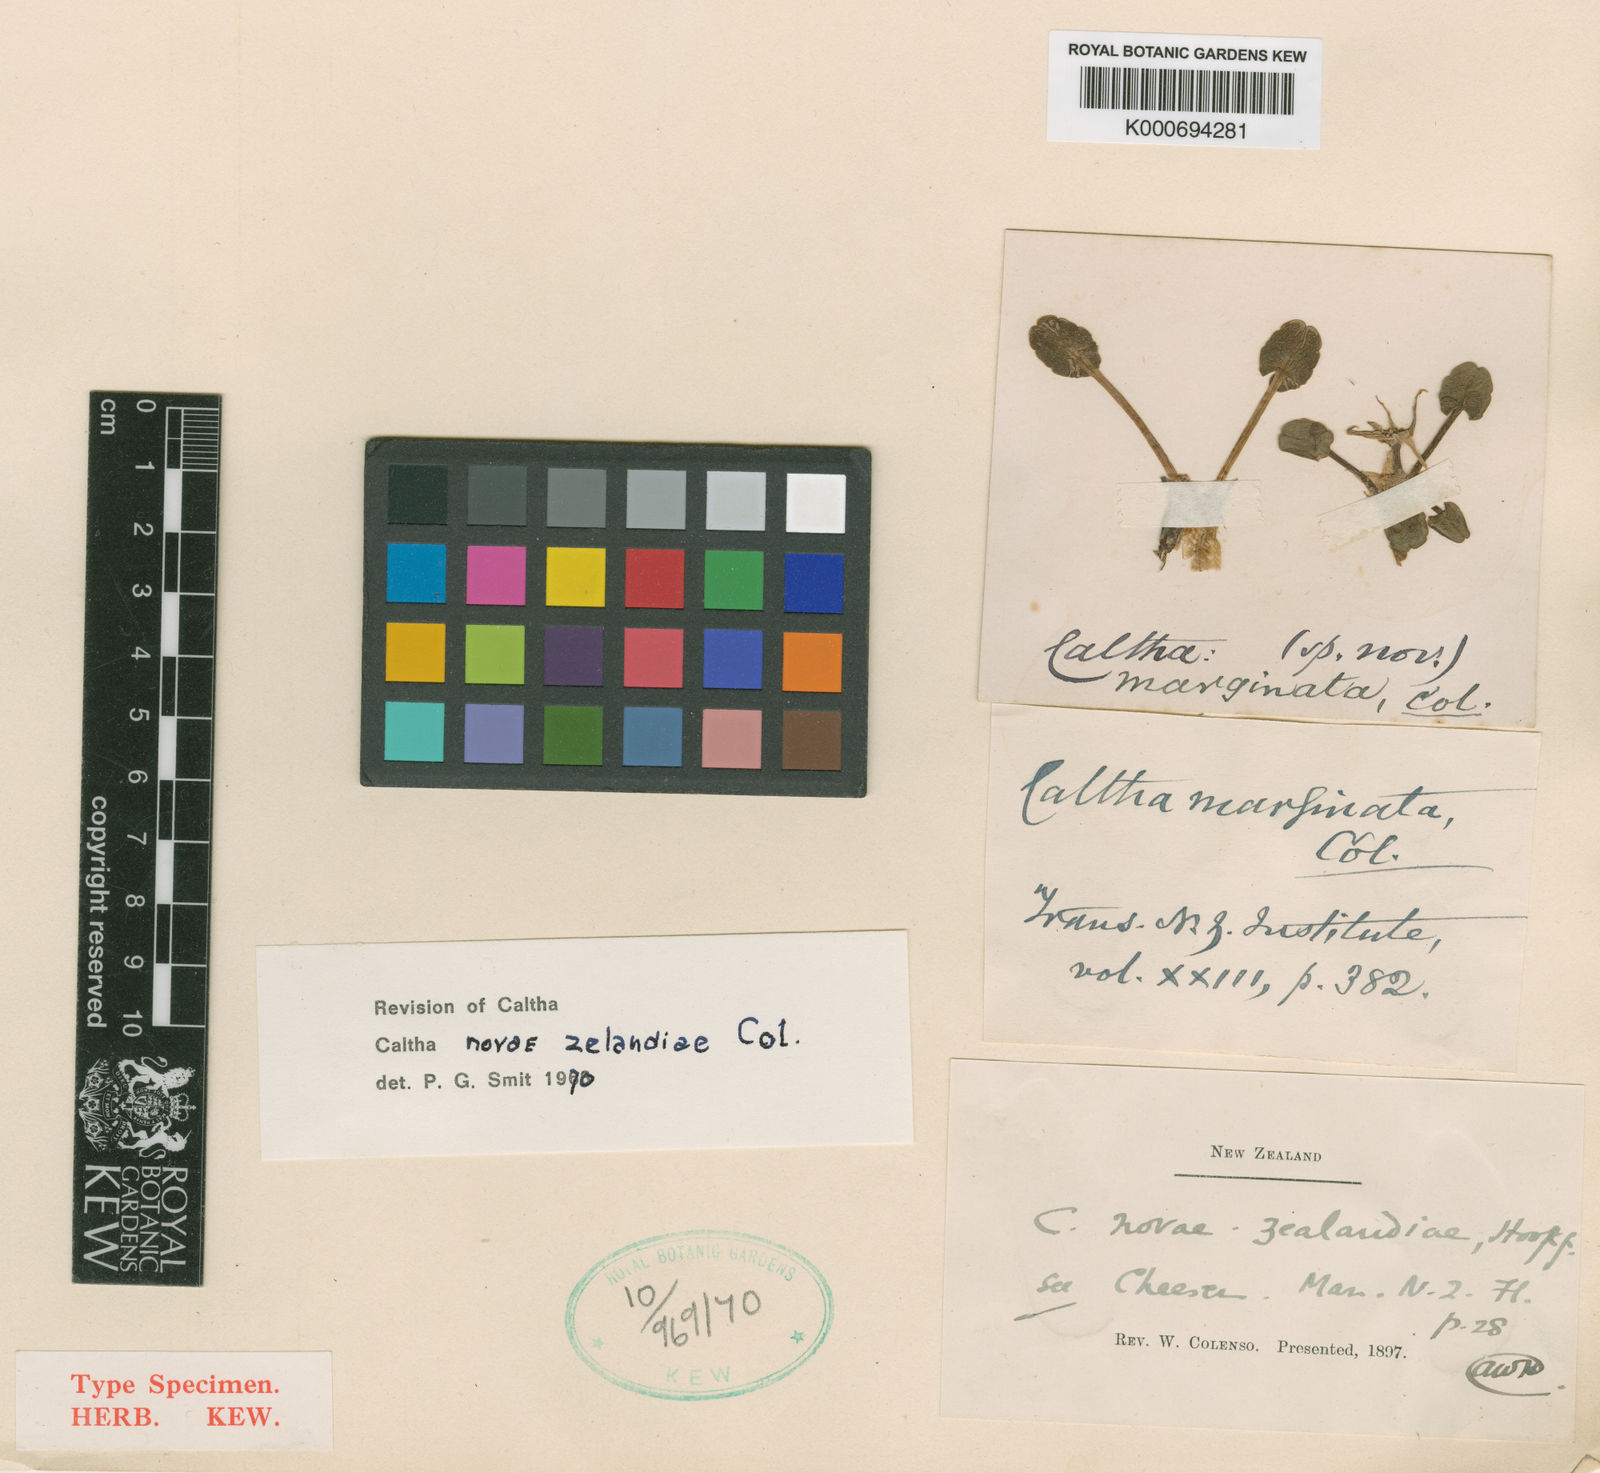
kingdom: Plantae
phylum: Tracheophyta
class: Magnoliopsida
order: Ranunculales
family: Ranunculaceae
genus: Caltha
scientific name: Caltha novae-zelandiae
